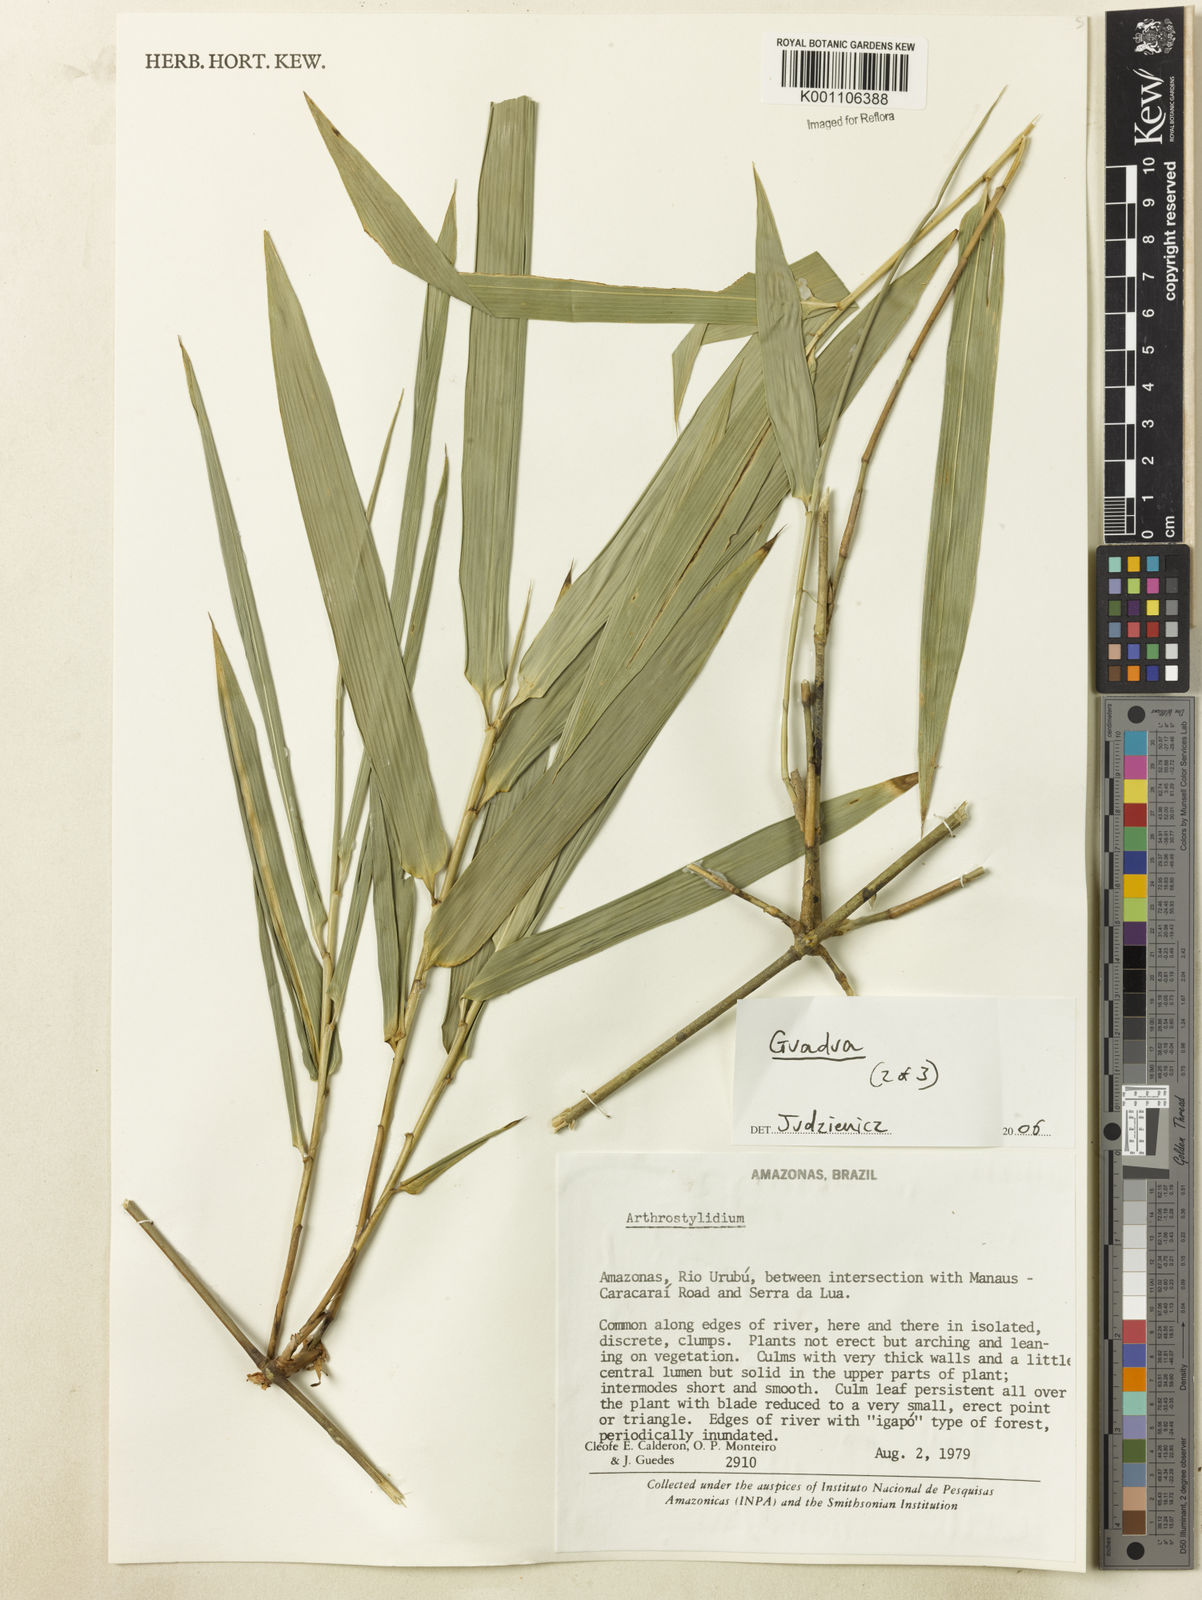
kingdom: Plantae
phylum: Tracheophyta
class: Liliopsida
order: Poales
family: Poaceae
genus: Guadua
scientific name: Guadua
